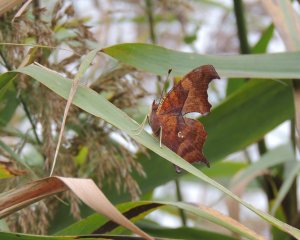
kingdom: Animalia
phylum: Arthropoda
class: Insecta
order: Lepidoptera
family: Nymphalidae
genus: Polygonia
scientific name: Polygonia interrogationis
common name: Question Mark
